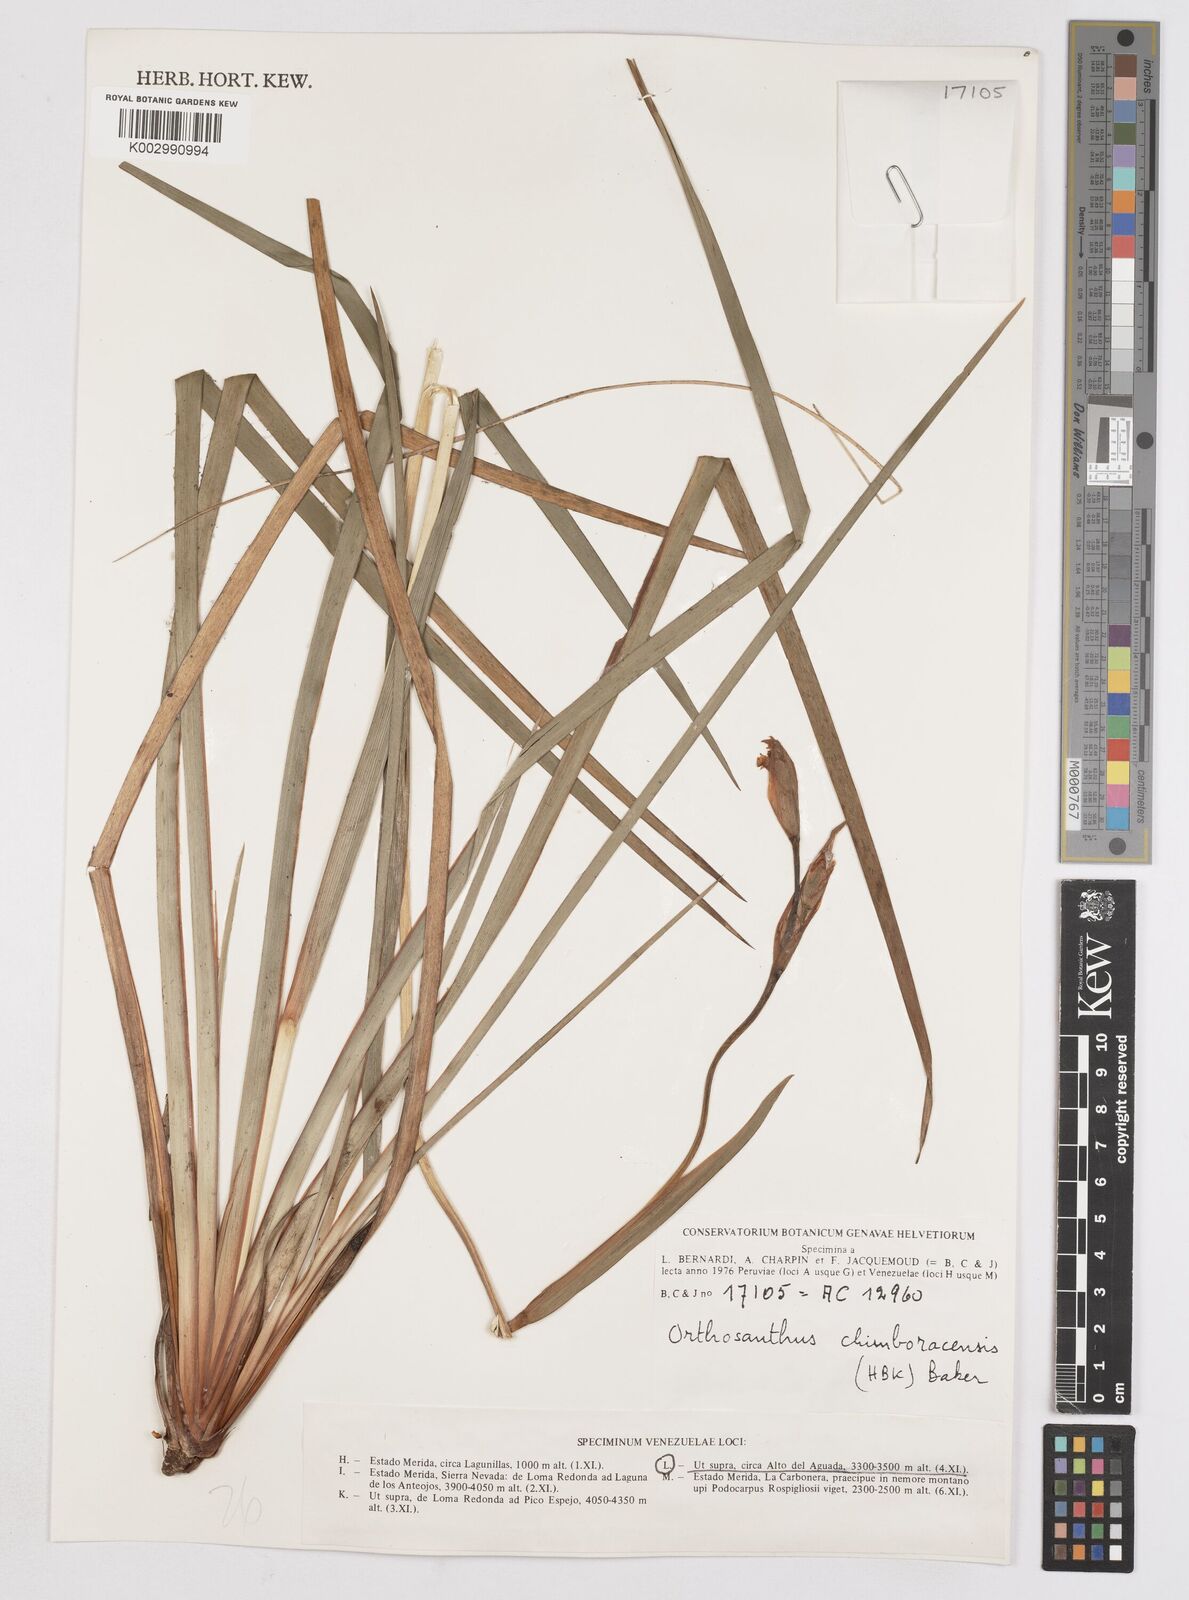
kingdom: Plantae
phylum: Tracheophyta
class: Liliopsida
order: Asparagales
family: Iridaceae
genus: Orthrosanthus
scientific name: Orthrosanthus chimboracensis
